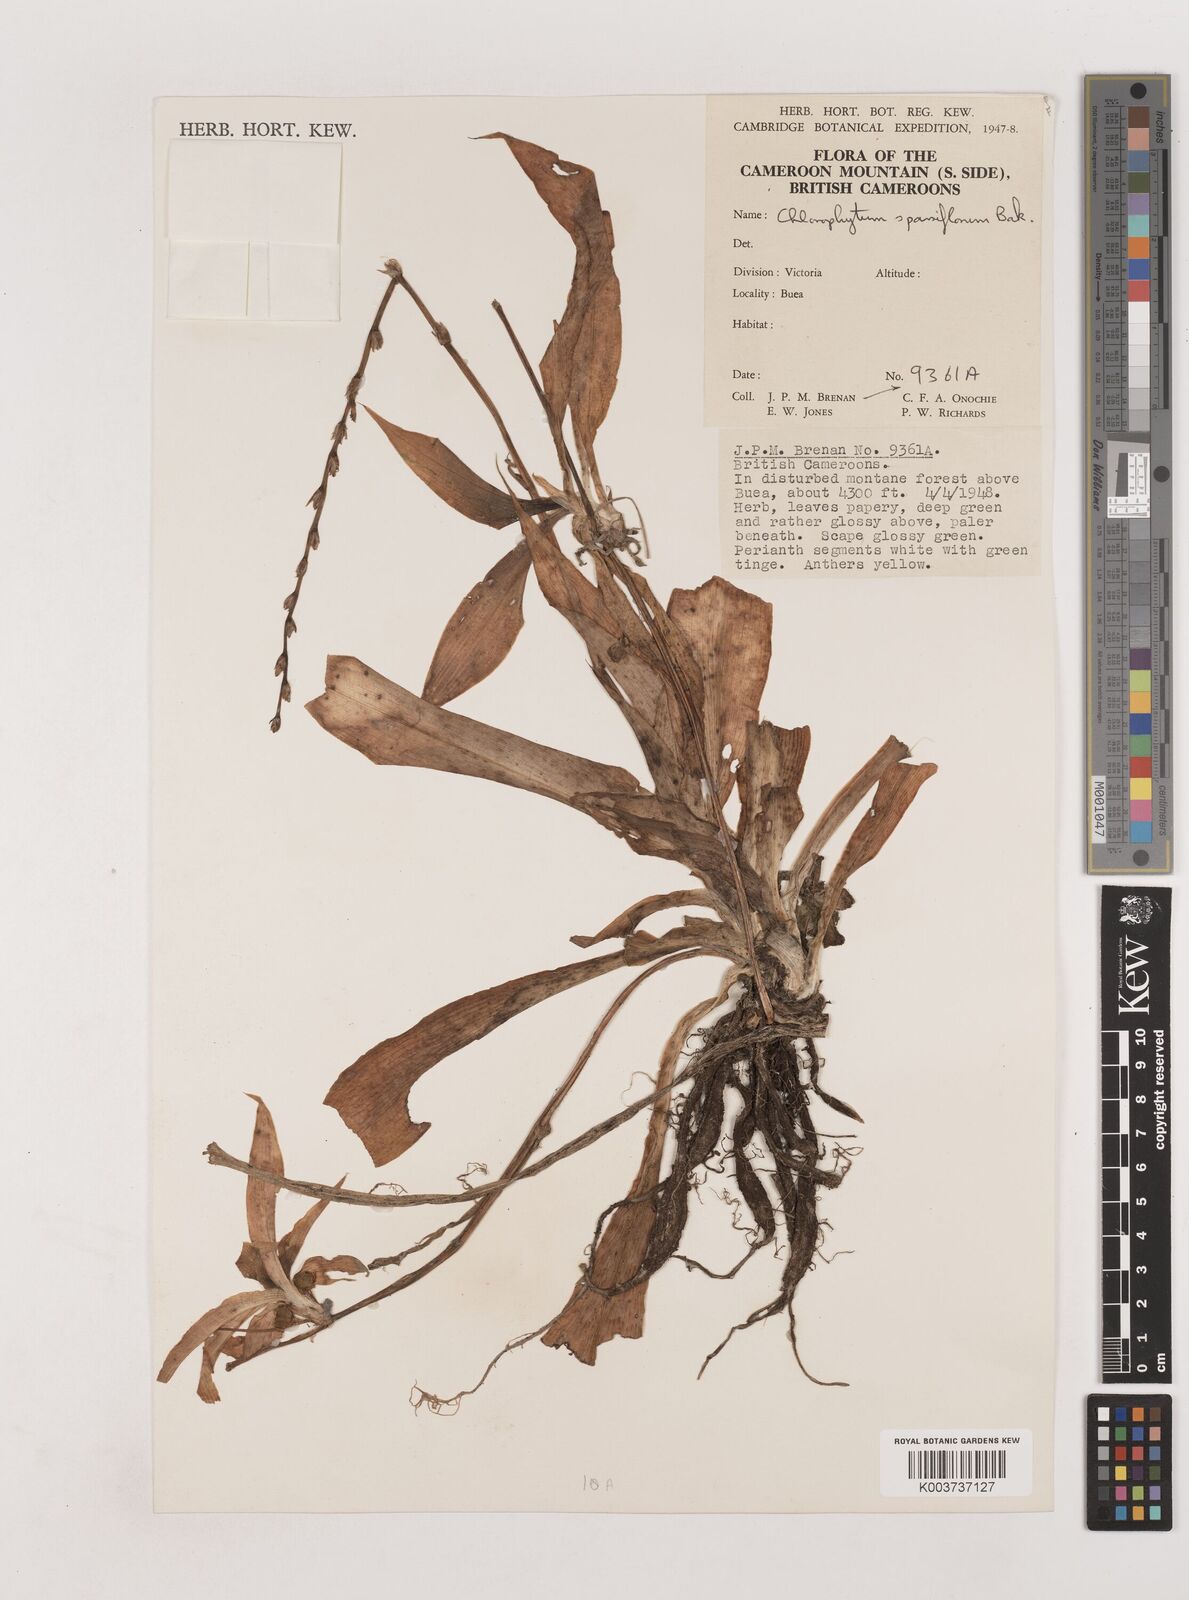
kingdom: Plantae
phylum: Tracheophyta
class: Liliopsida
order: Asparagales
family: Asparagaceae
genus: Chlorophytum
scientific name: Chlorophytum sparsiflorum
